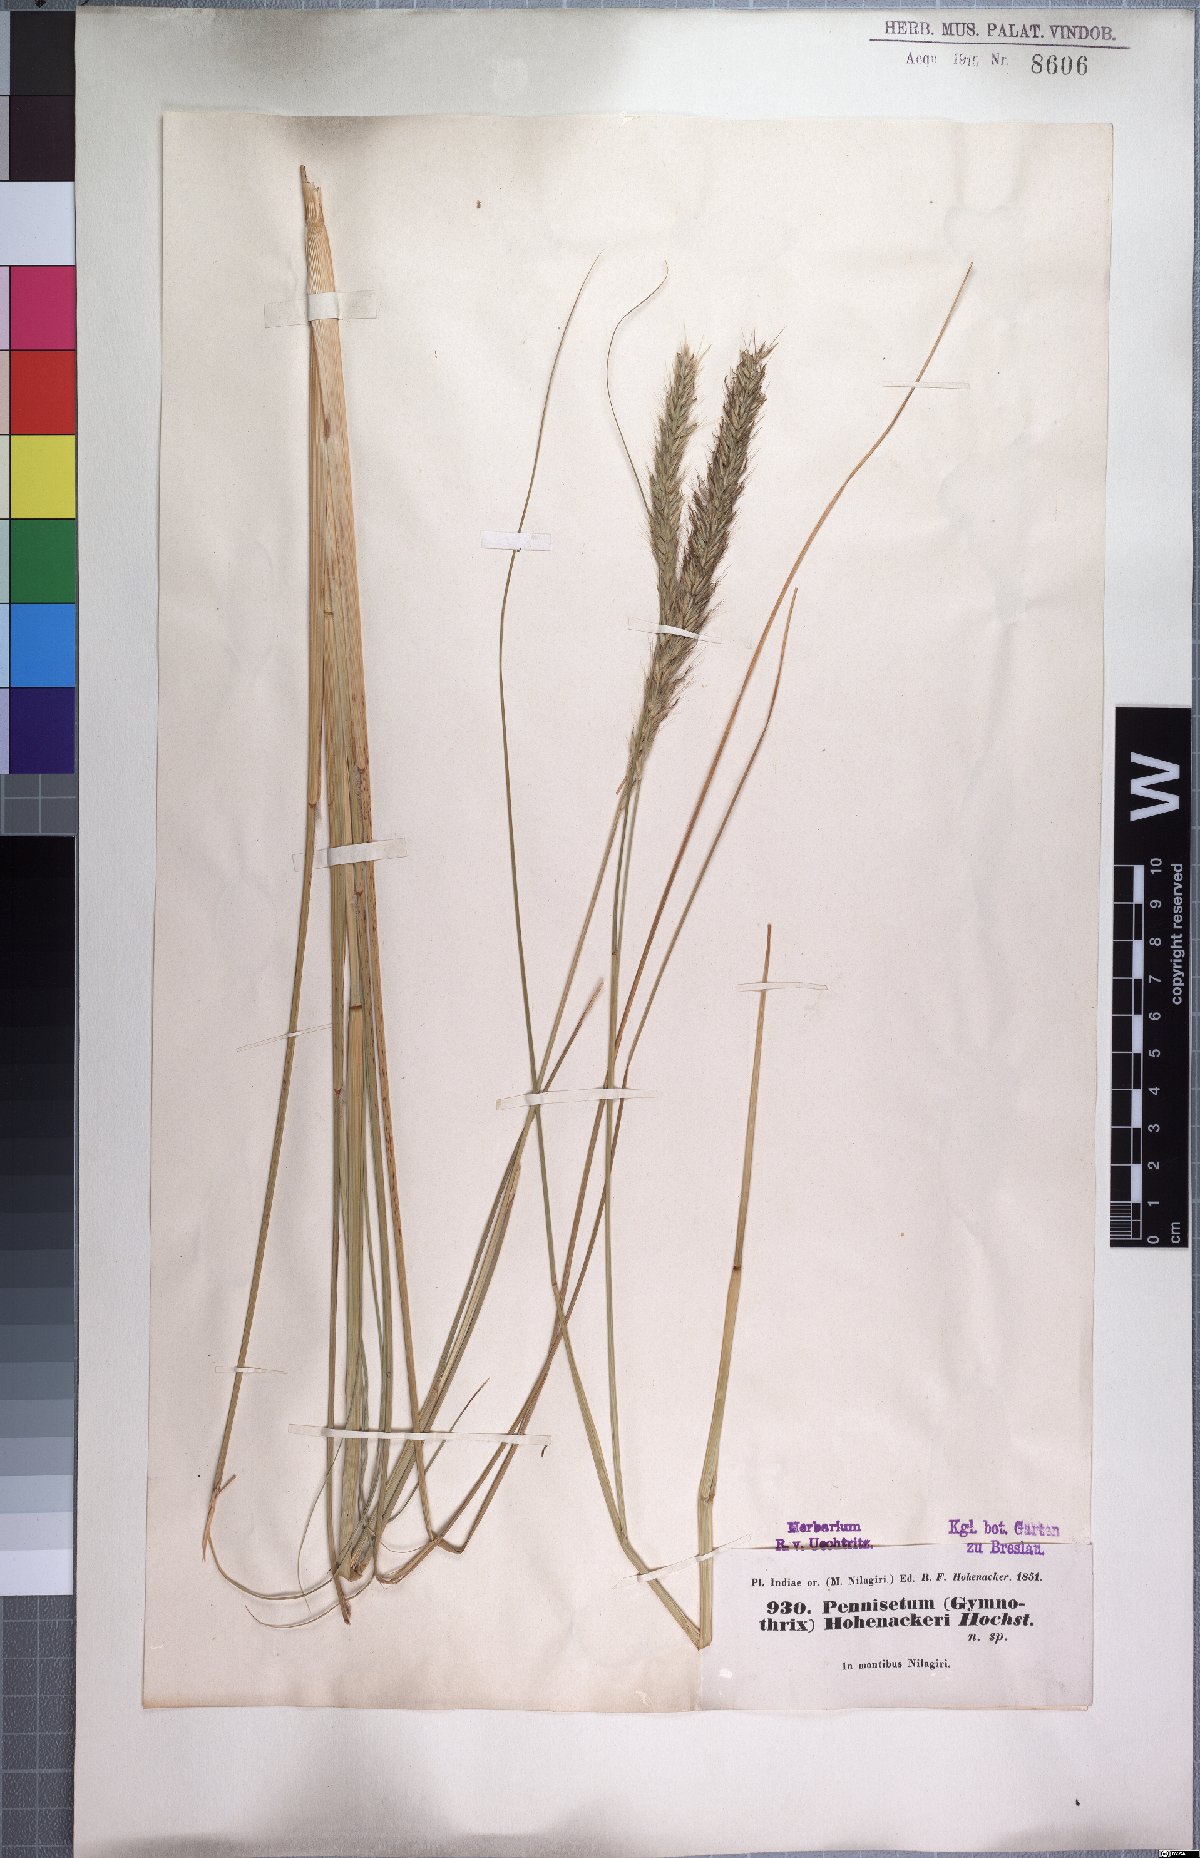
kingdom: Plantae
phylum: Tracheophyta
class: Liliopsida
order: Poales
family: Poaceae
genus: Cenchrus
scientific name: Cenchrus hohenackeri
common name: Moya grass
